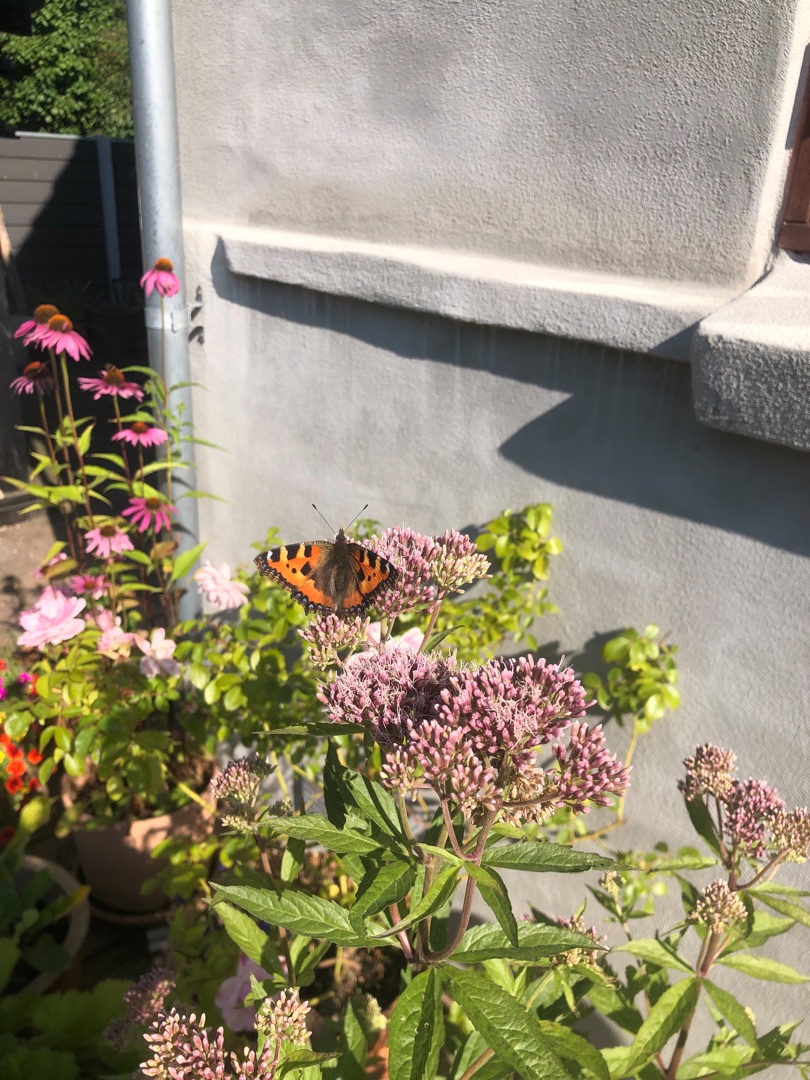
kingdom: Animalia
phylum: Arthropoda
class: Insecta
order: Lepidoptera
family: Nymphalidae
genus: Aglais
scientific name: Aglais urticae
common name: Nældens takvinge
